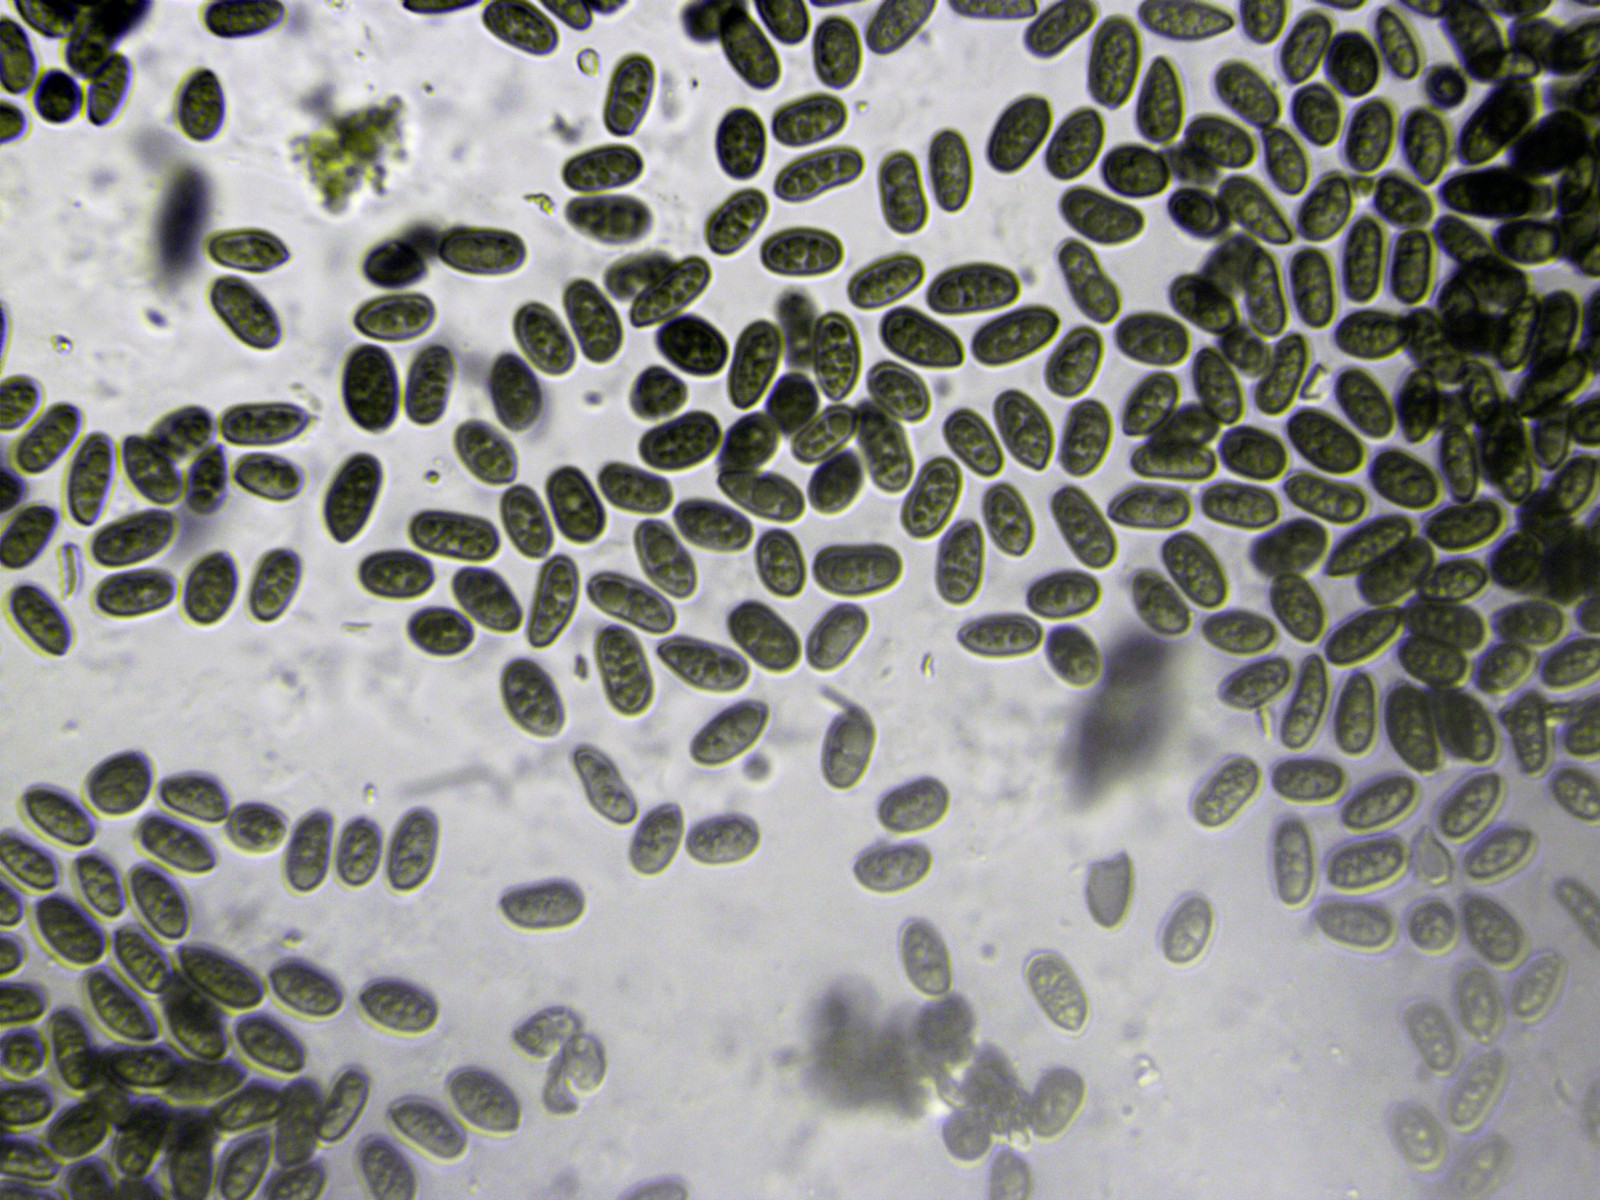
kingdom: Fungi
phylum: Ascomycota
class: Sordariomycetes
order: Diaporthales
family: Melanconidaceae
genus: Melanconium
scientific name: Melanconium stromaticum
